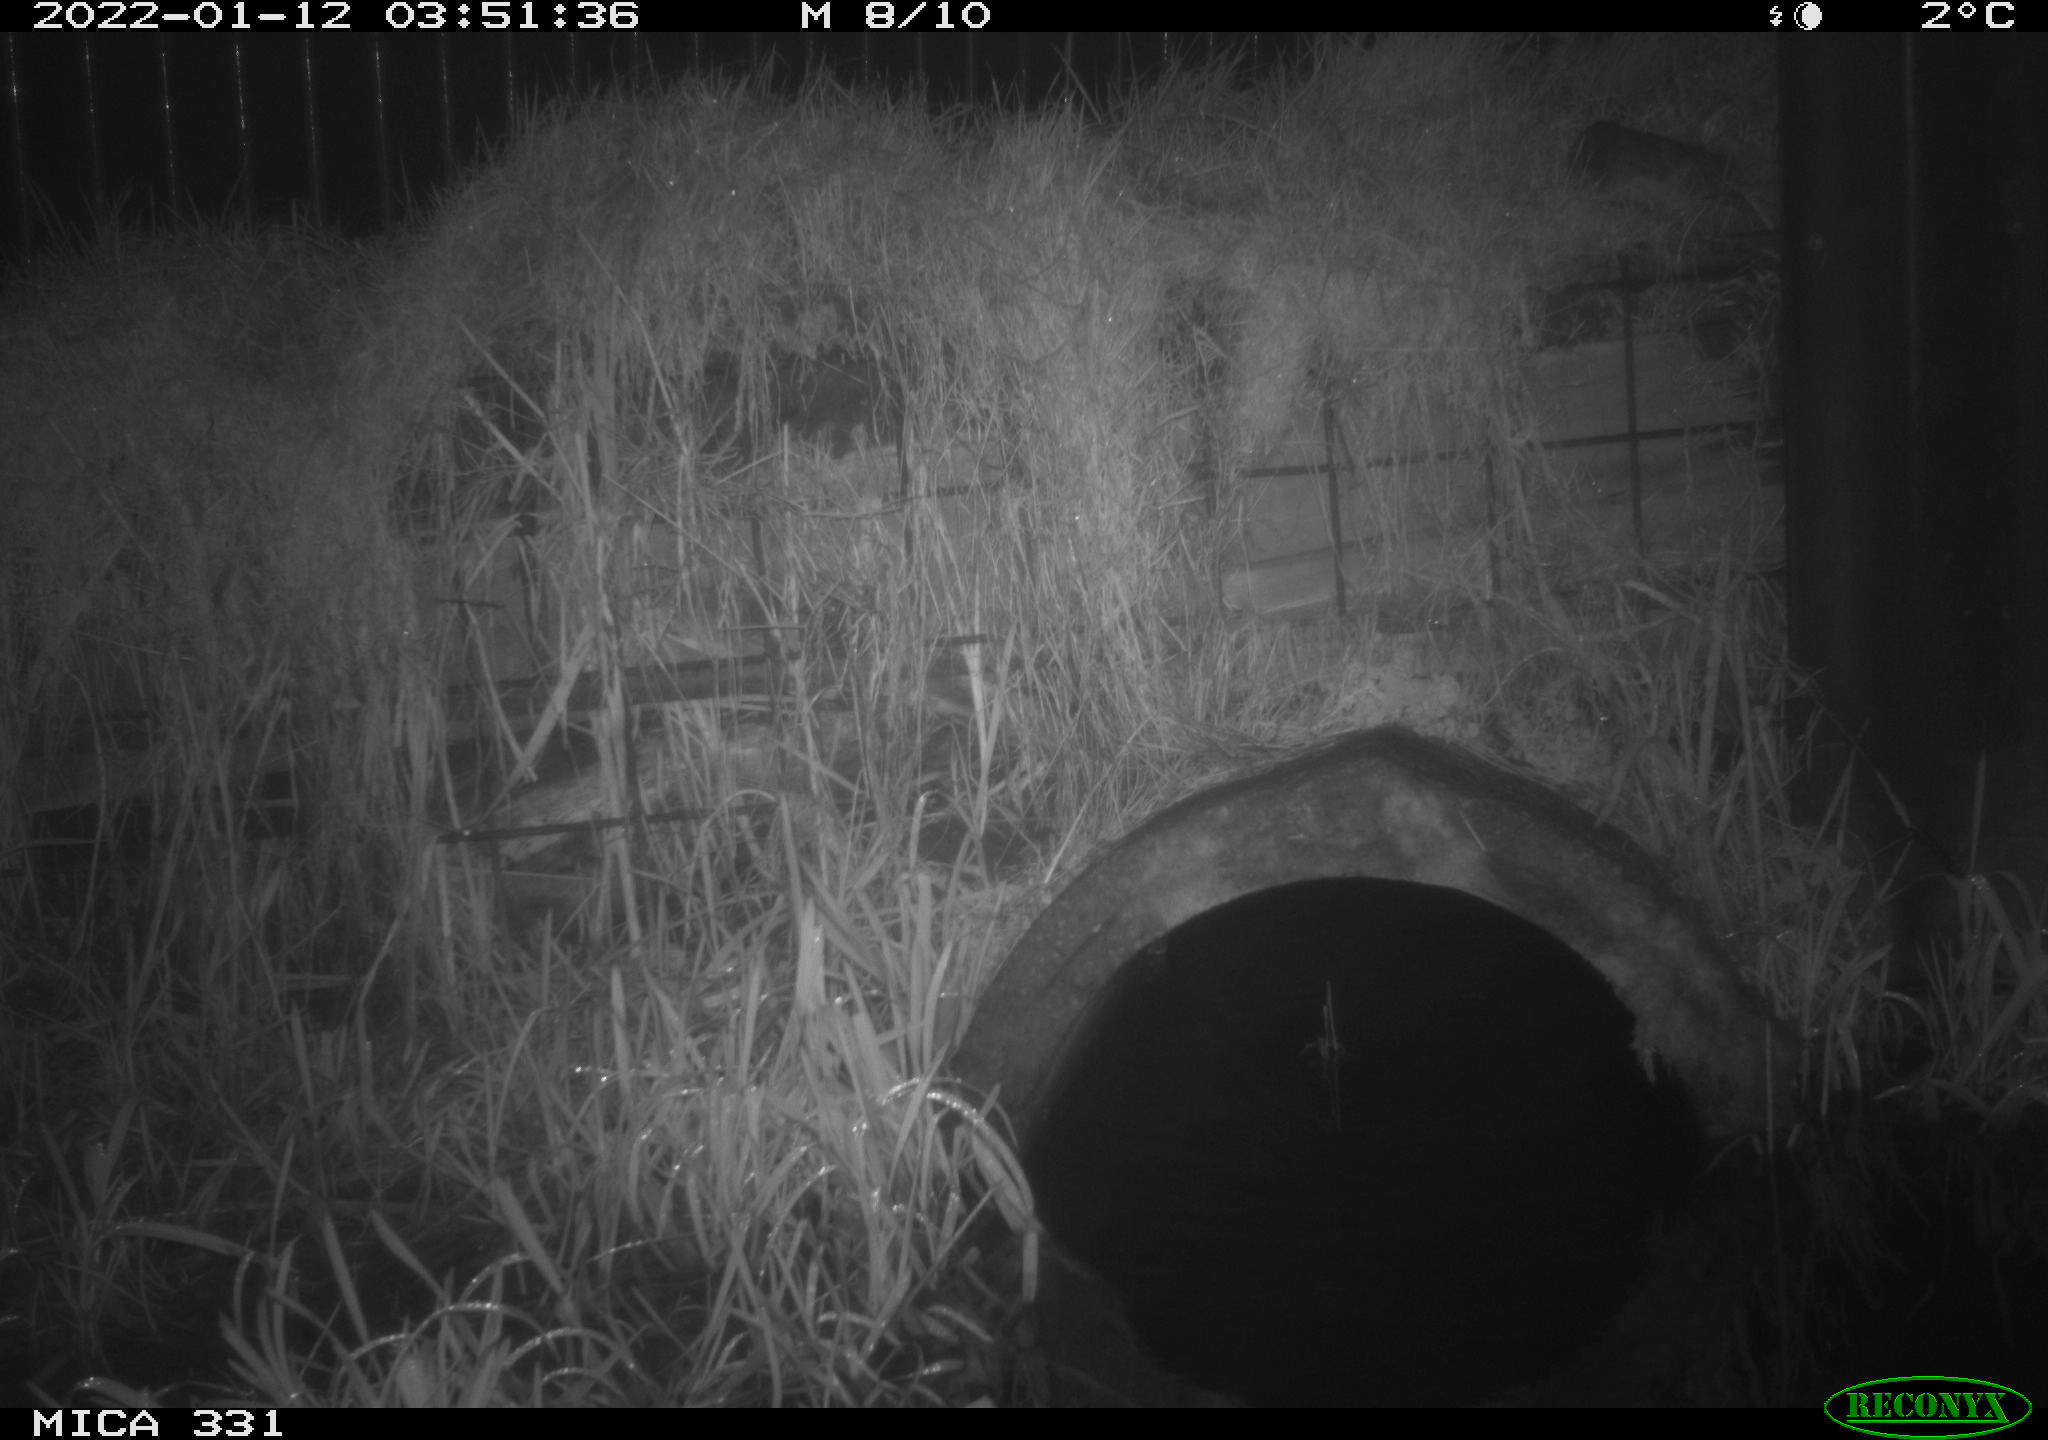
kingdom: Animalia
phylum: Chordata
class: Mammalia
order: Carnivora
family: Canidae
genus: Vulpes
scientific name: Vulpes vulpes
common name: Red fox
